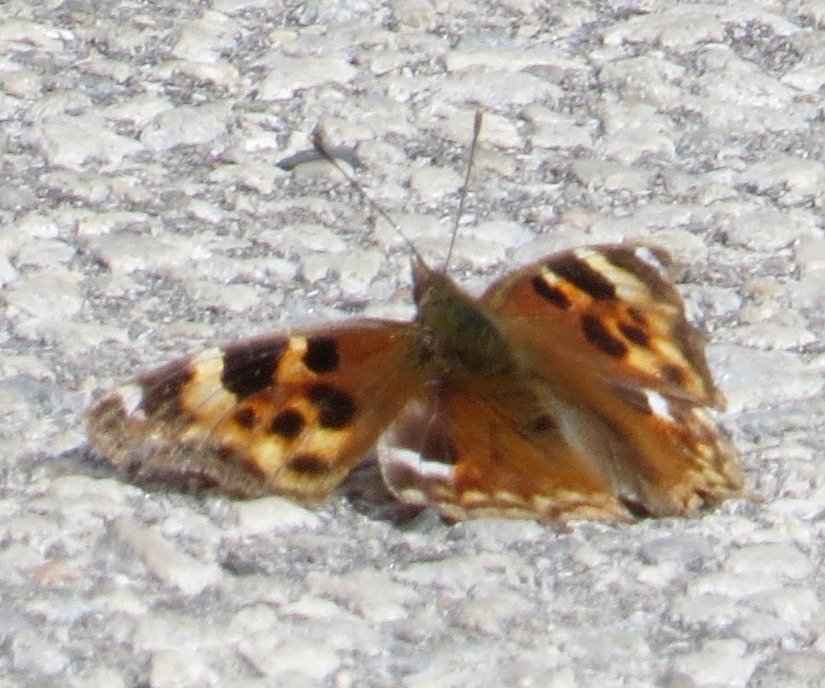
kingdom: Animalia
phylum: Arthropoda
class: Insecta
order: Lepidoptera
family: Nymphalidae
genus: Polygonia
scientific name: Polygonia vaualbum
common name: Compton Tortoiseshell
